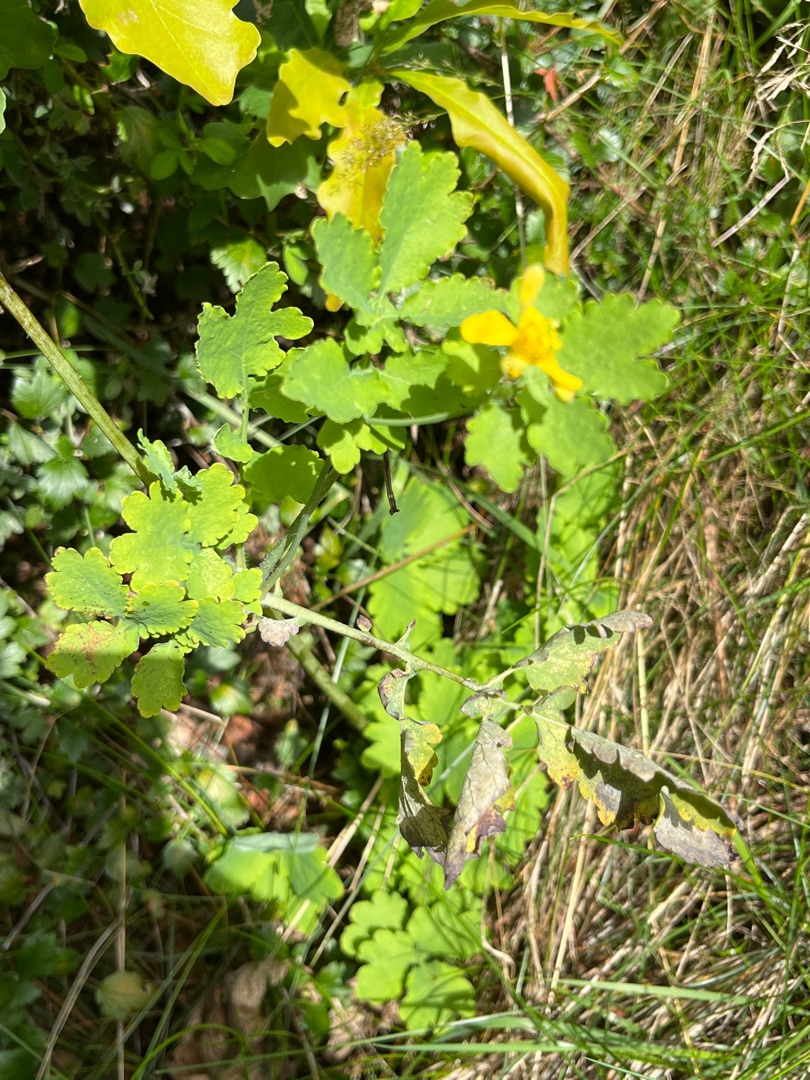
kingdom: Plantae
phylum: Tracheophyta
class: Magnoliopsida
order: Ranunculales
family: Papaveraceae
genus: Chelidonium
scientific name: Chelidonium majus
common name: Svaleurt
